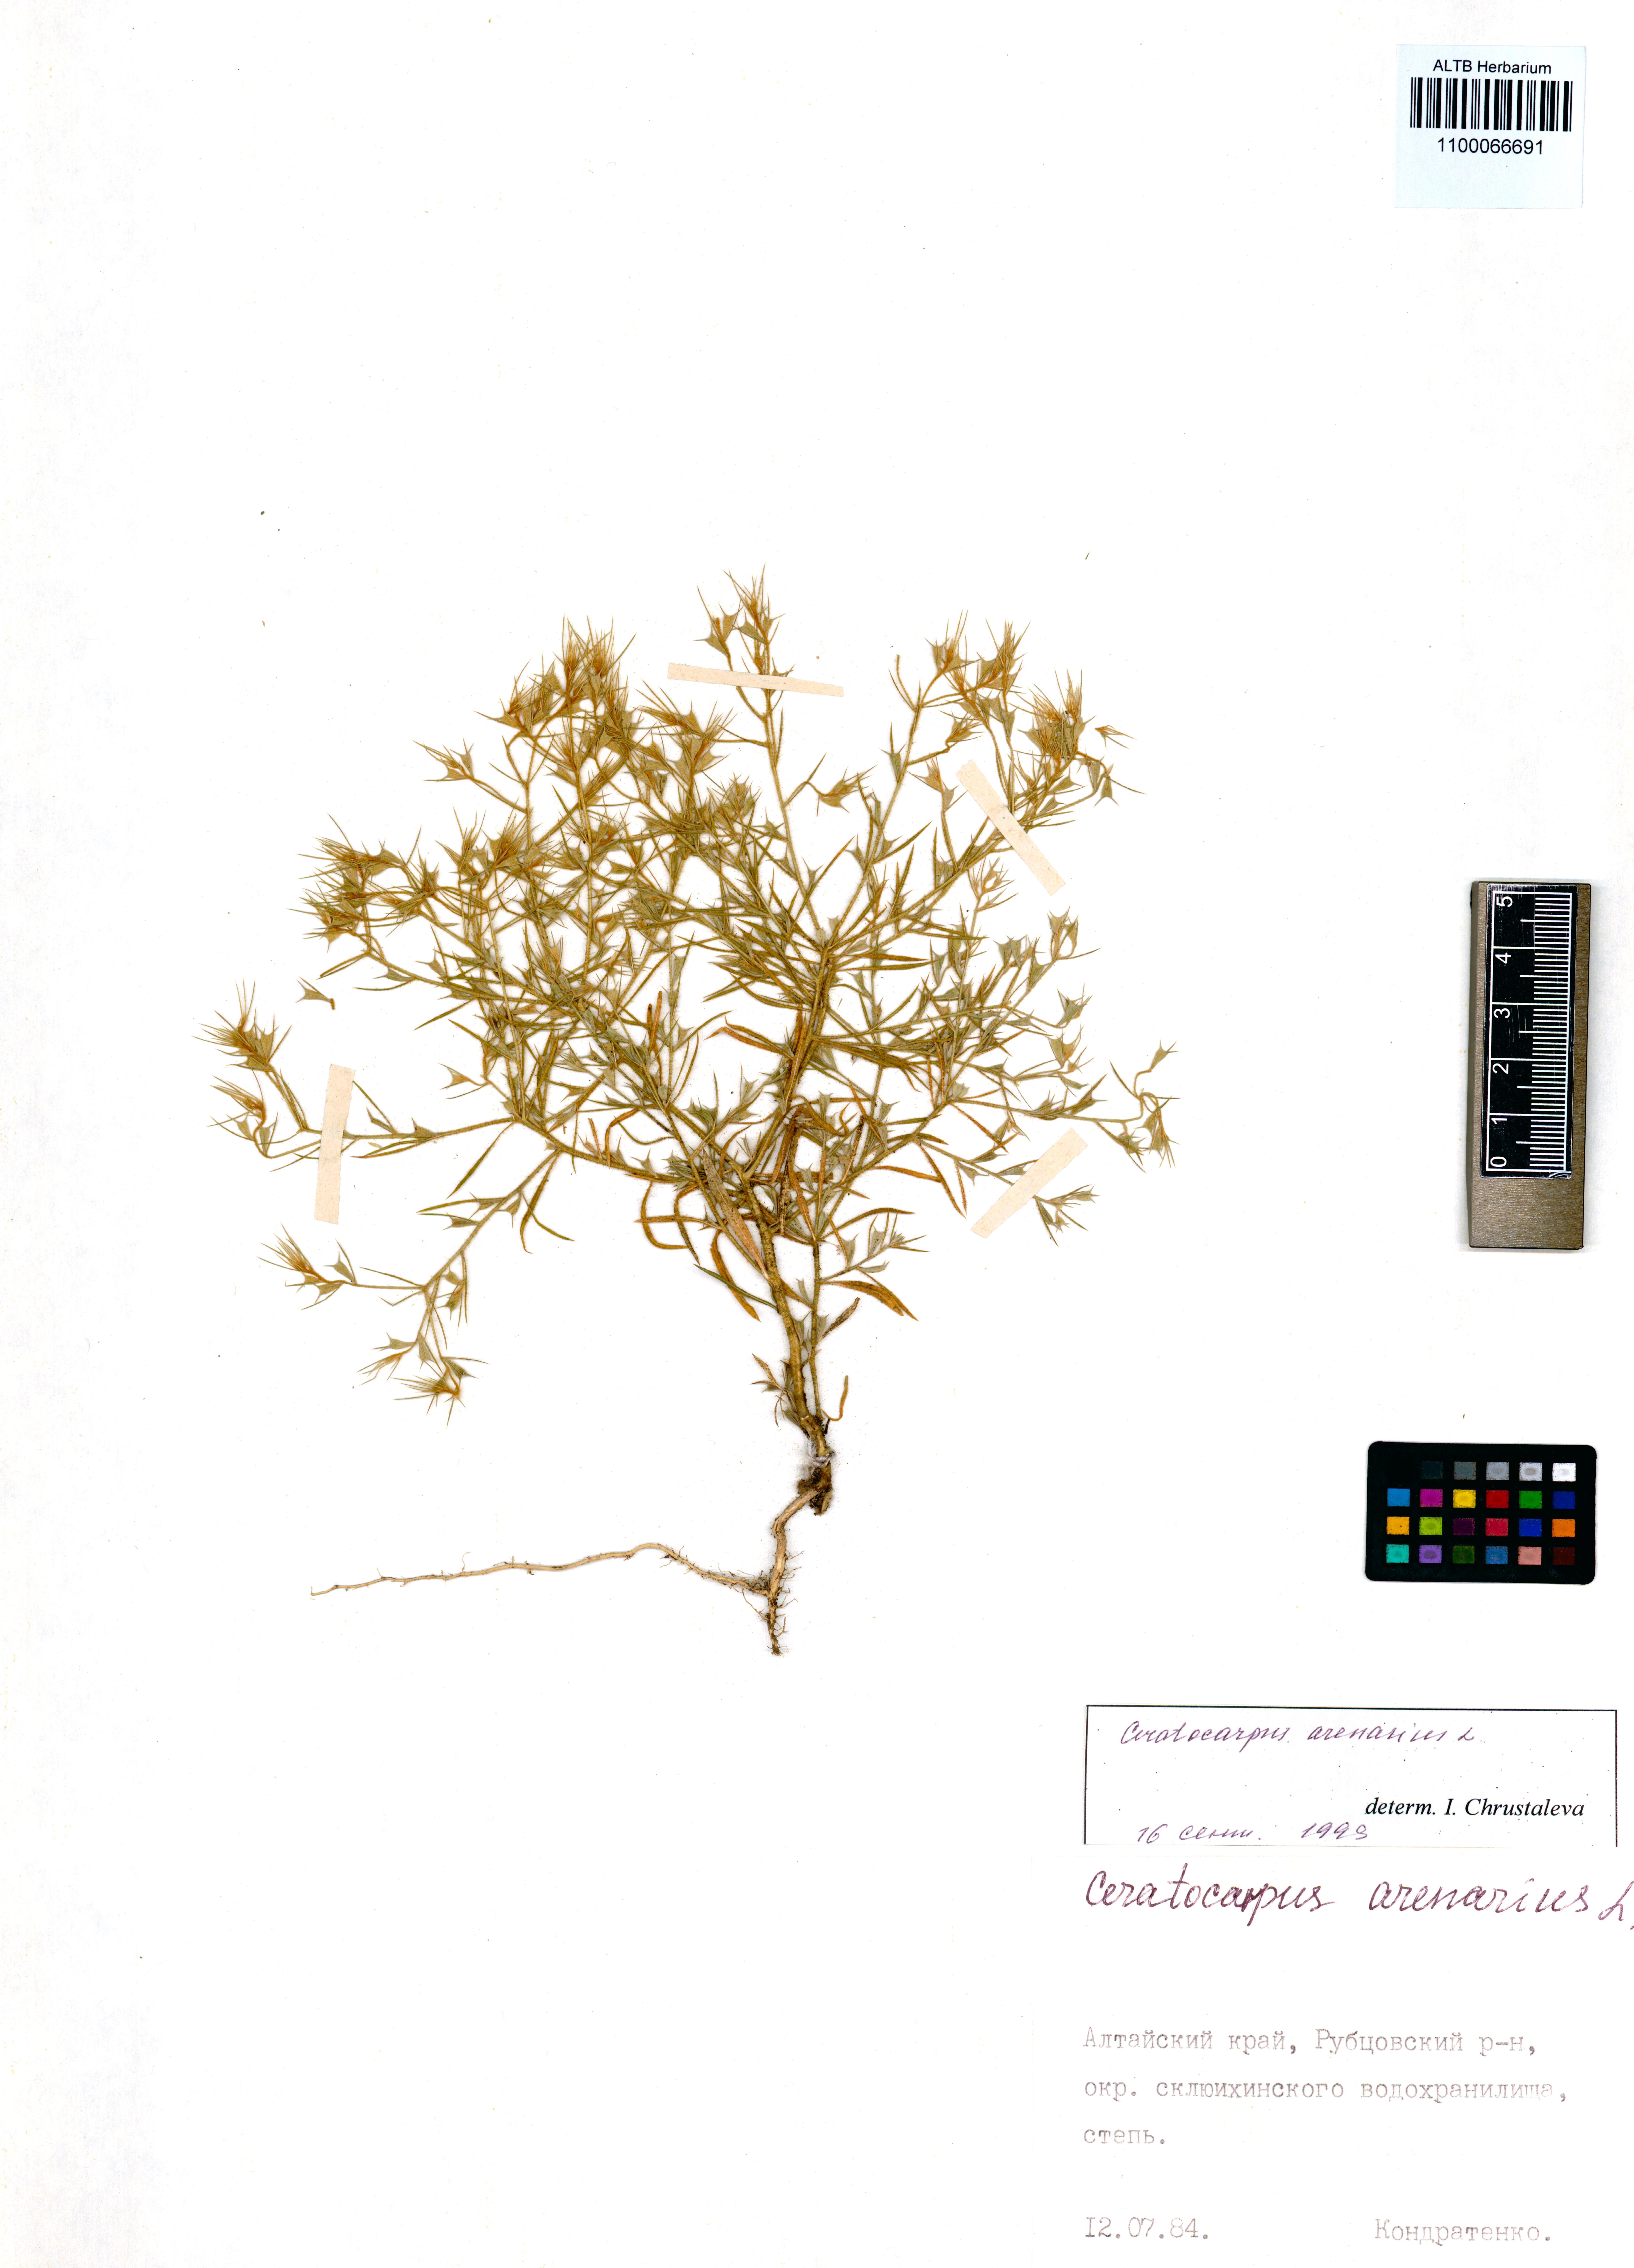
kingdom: Plantae
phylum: Tracheophyta
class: Magnoliopsida
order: Caryophyllales
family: Amaranthaceae
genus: Ceratocarpus
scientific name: Ceratocarpus arenarius
